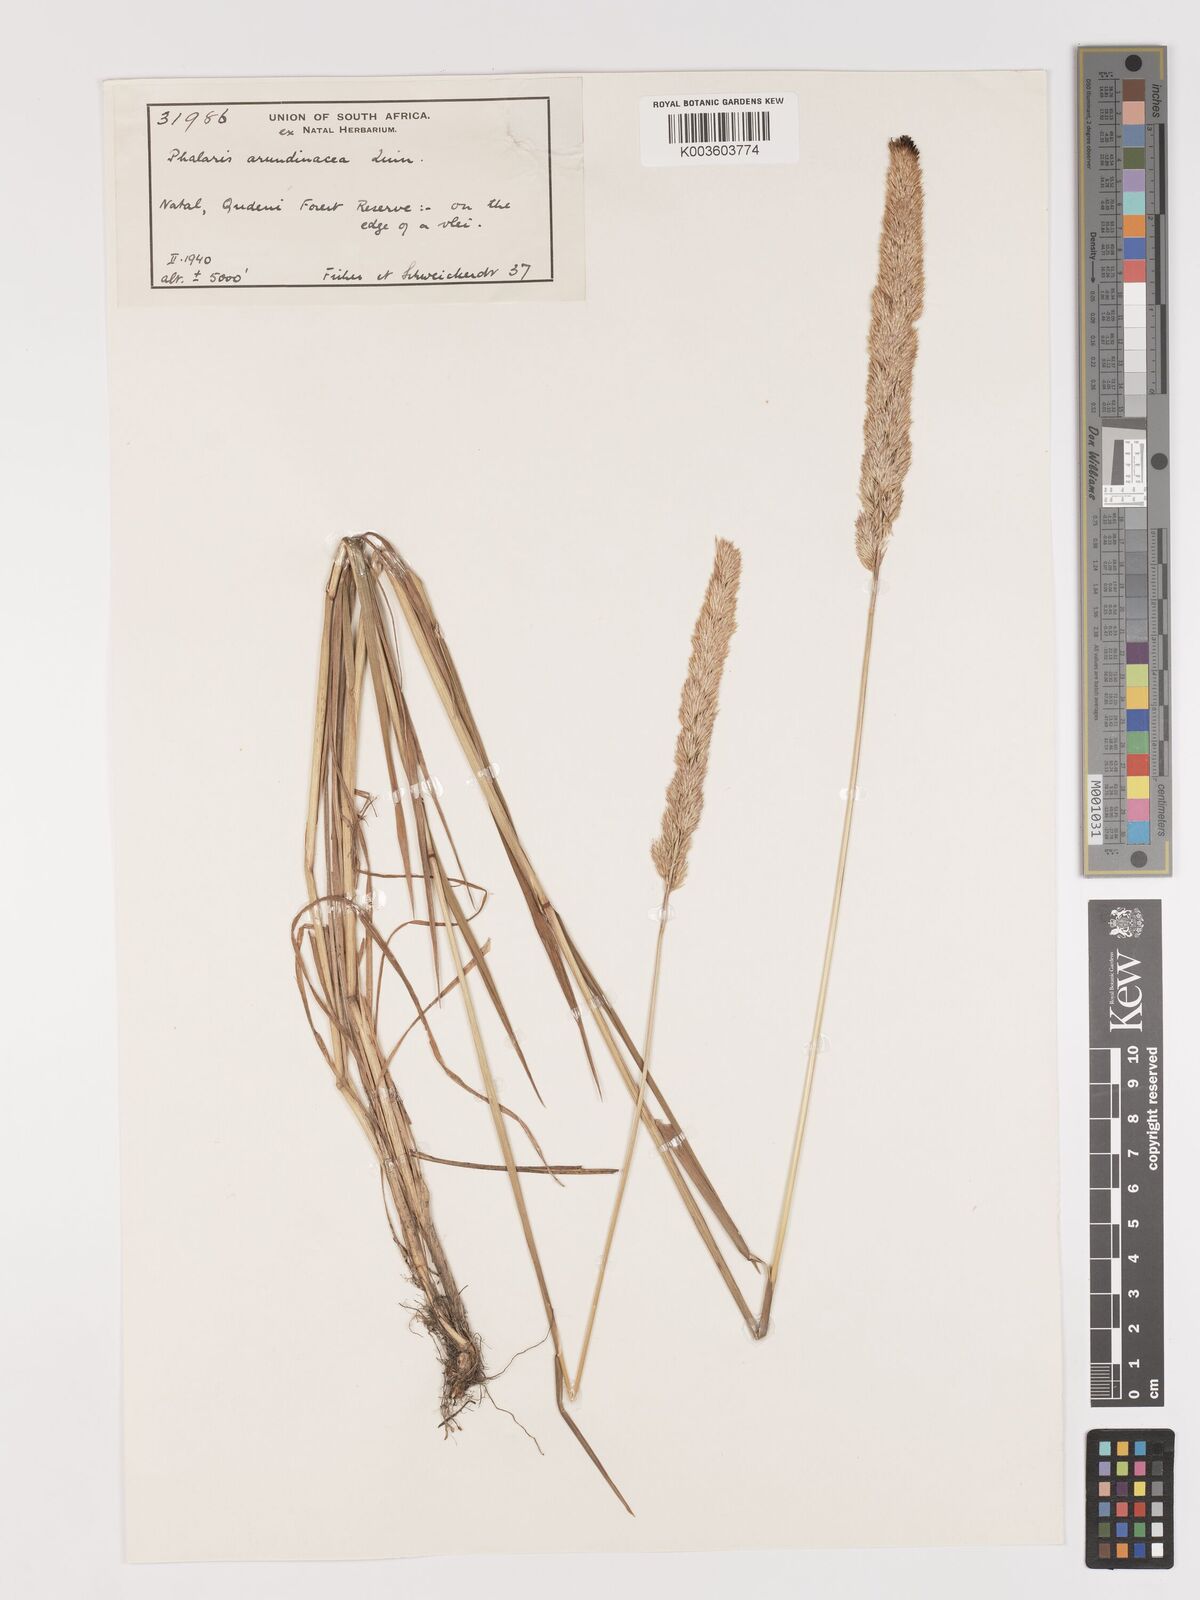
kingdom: Plantae
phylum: Tracheophyta
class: Liliopsida
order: Poales
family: Poaceae
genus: Agrostis
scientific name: Agrostis continuata
